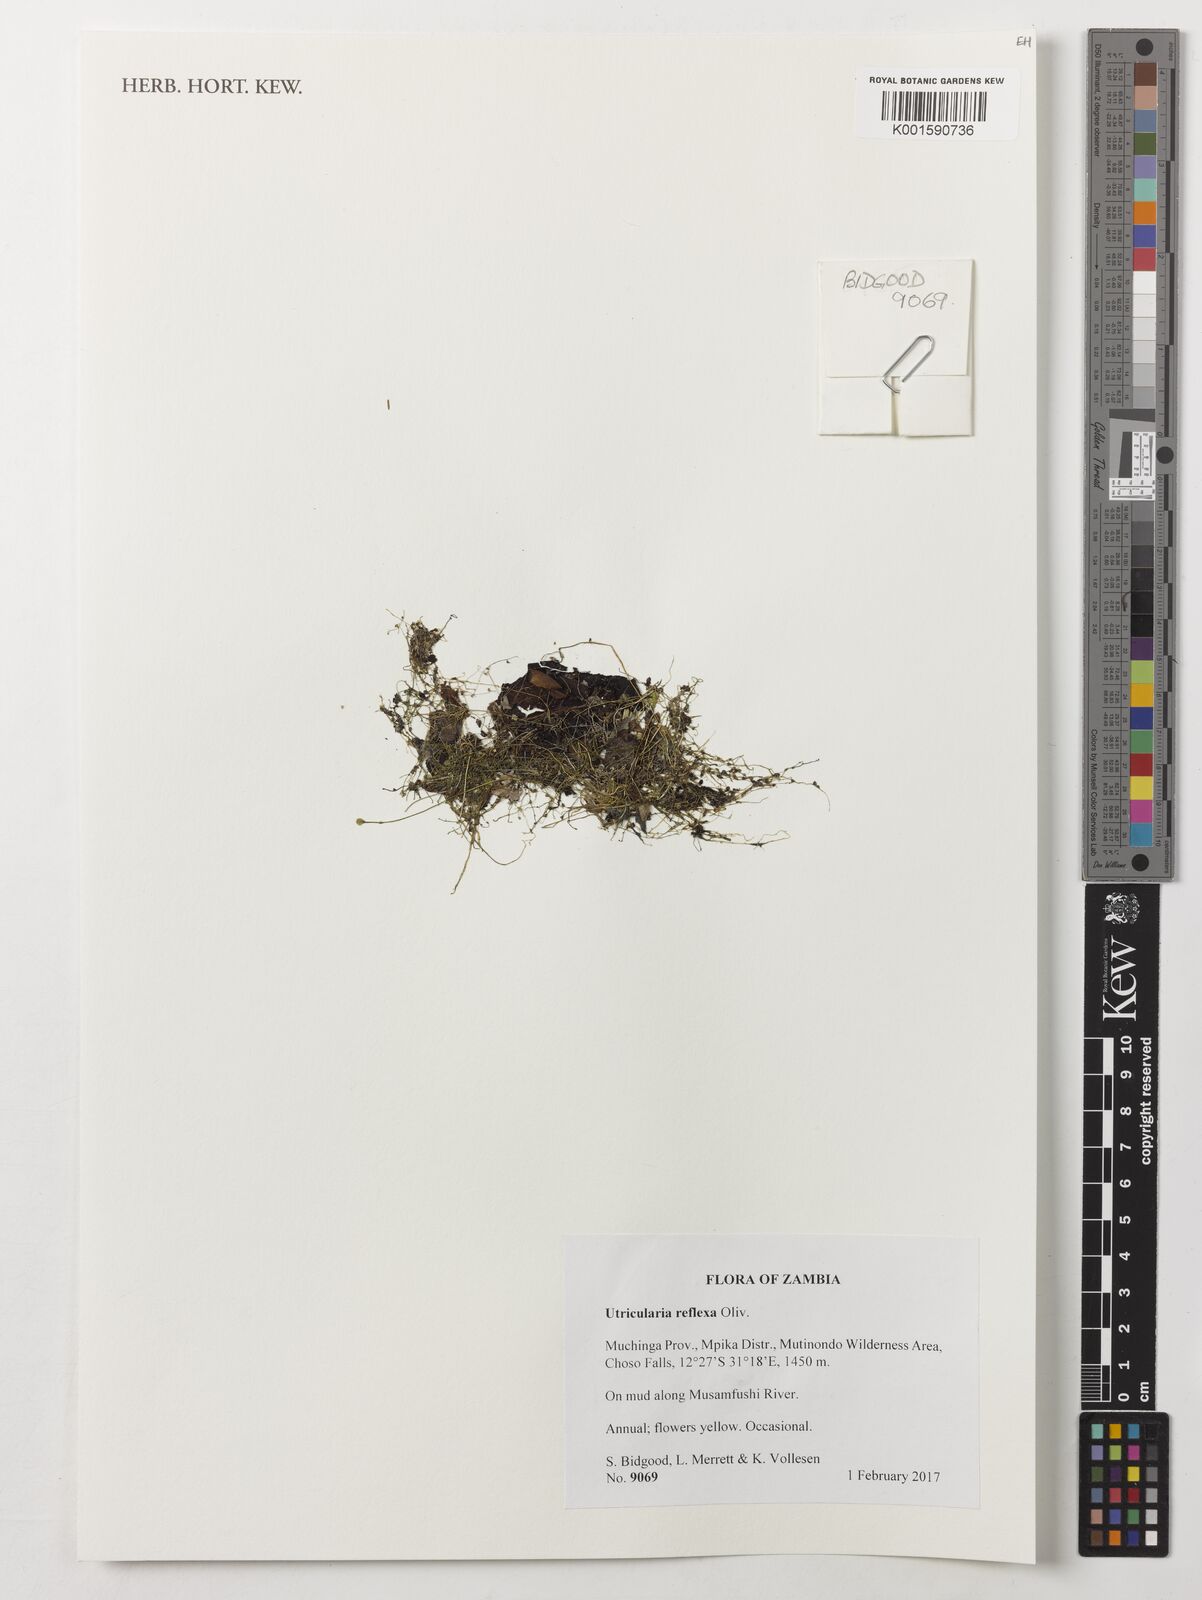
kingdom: Plantae
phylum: Tracheophyta
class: Magnoliopsida
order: Lamiales
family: Lentibulariaceae
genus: Utricularia
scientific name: Utricularia reflexa
